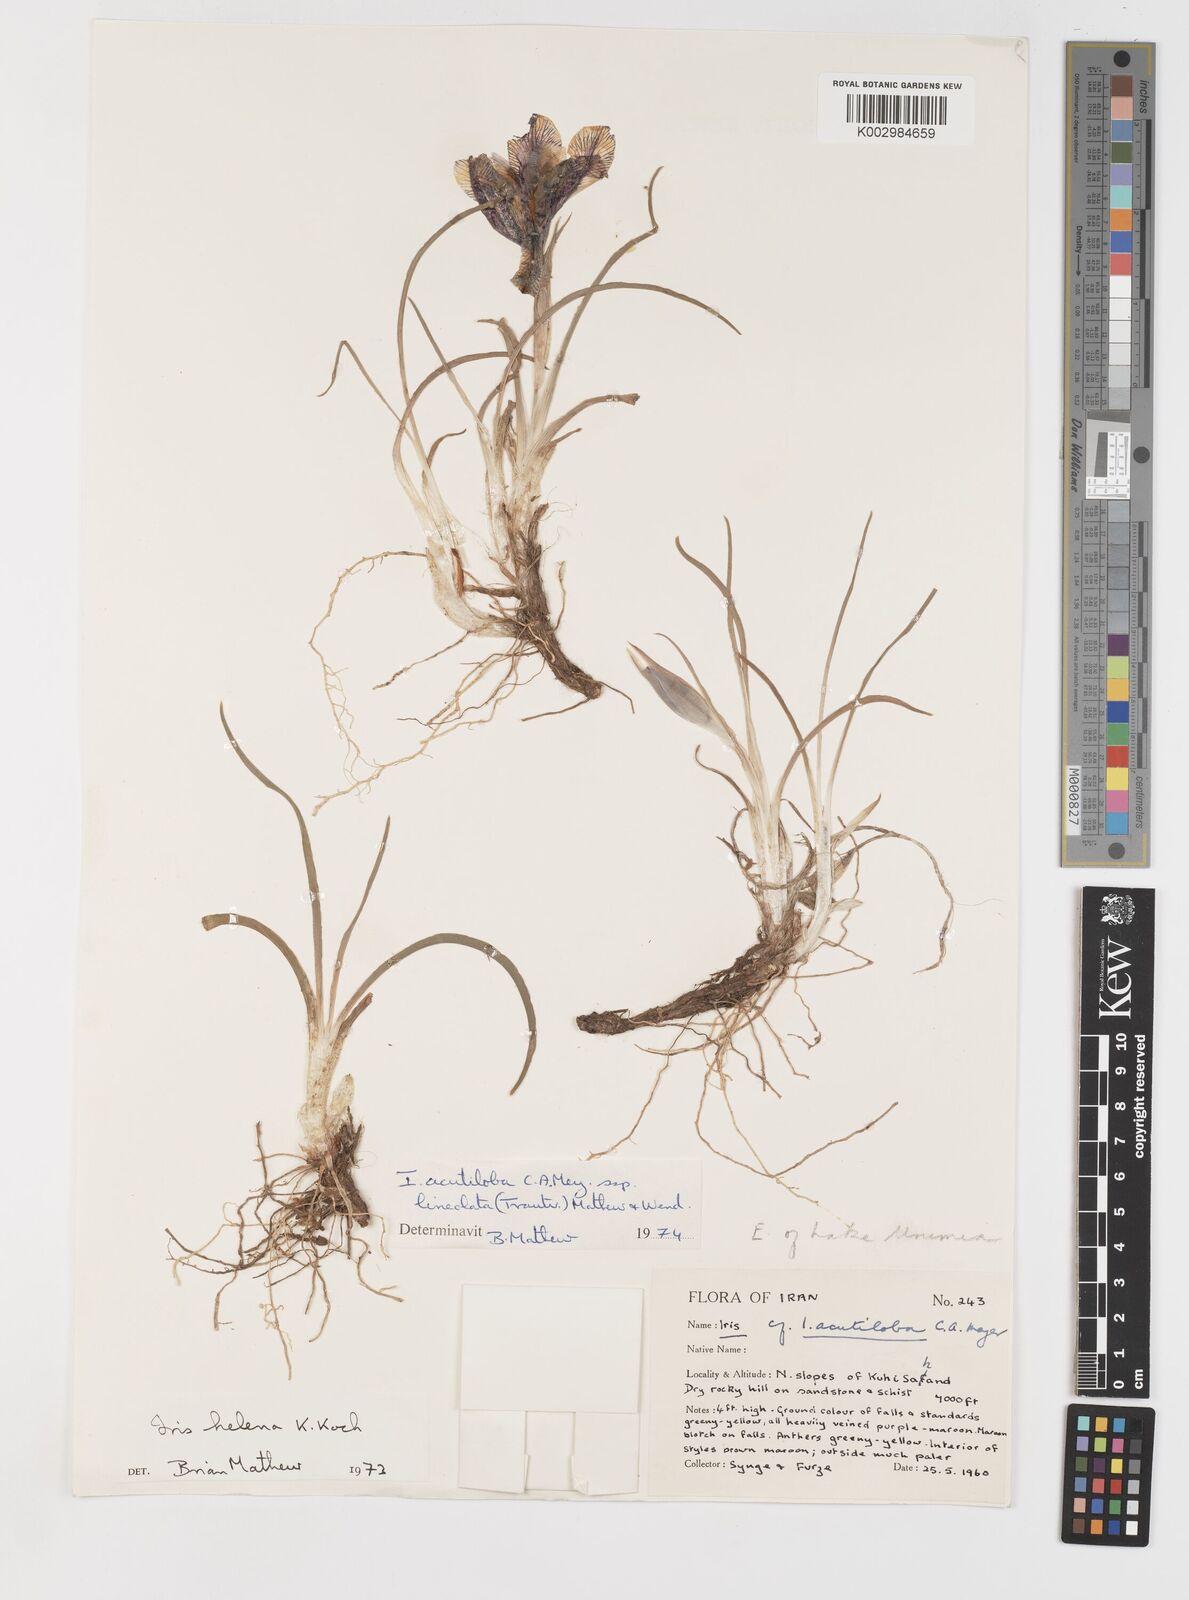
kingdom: Plantae
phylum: Tracheophyta
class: Liliopsida
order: Asparagales
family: Iridaceae
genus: Iris
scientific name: Iris acutiloba
